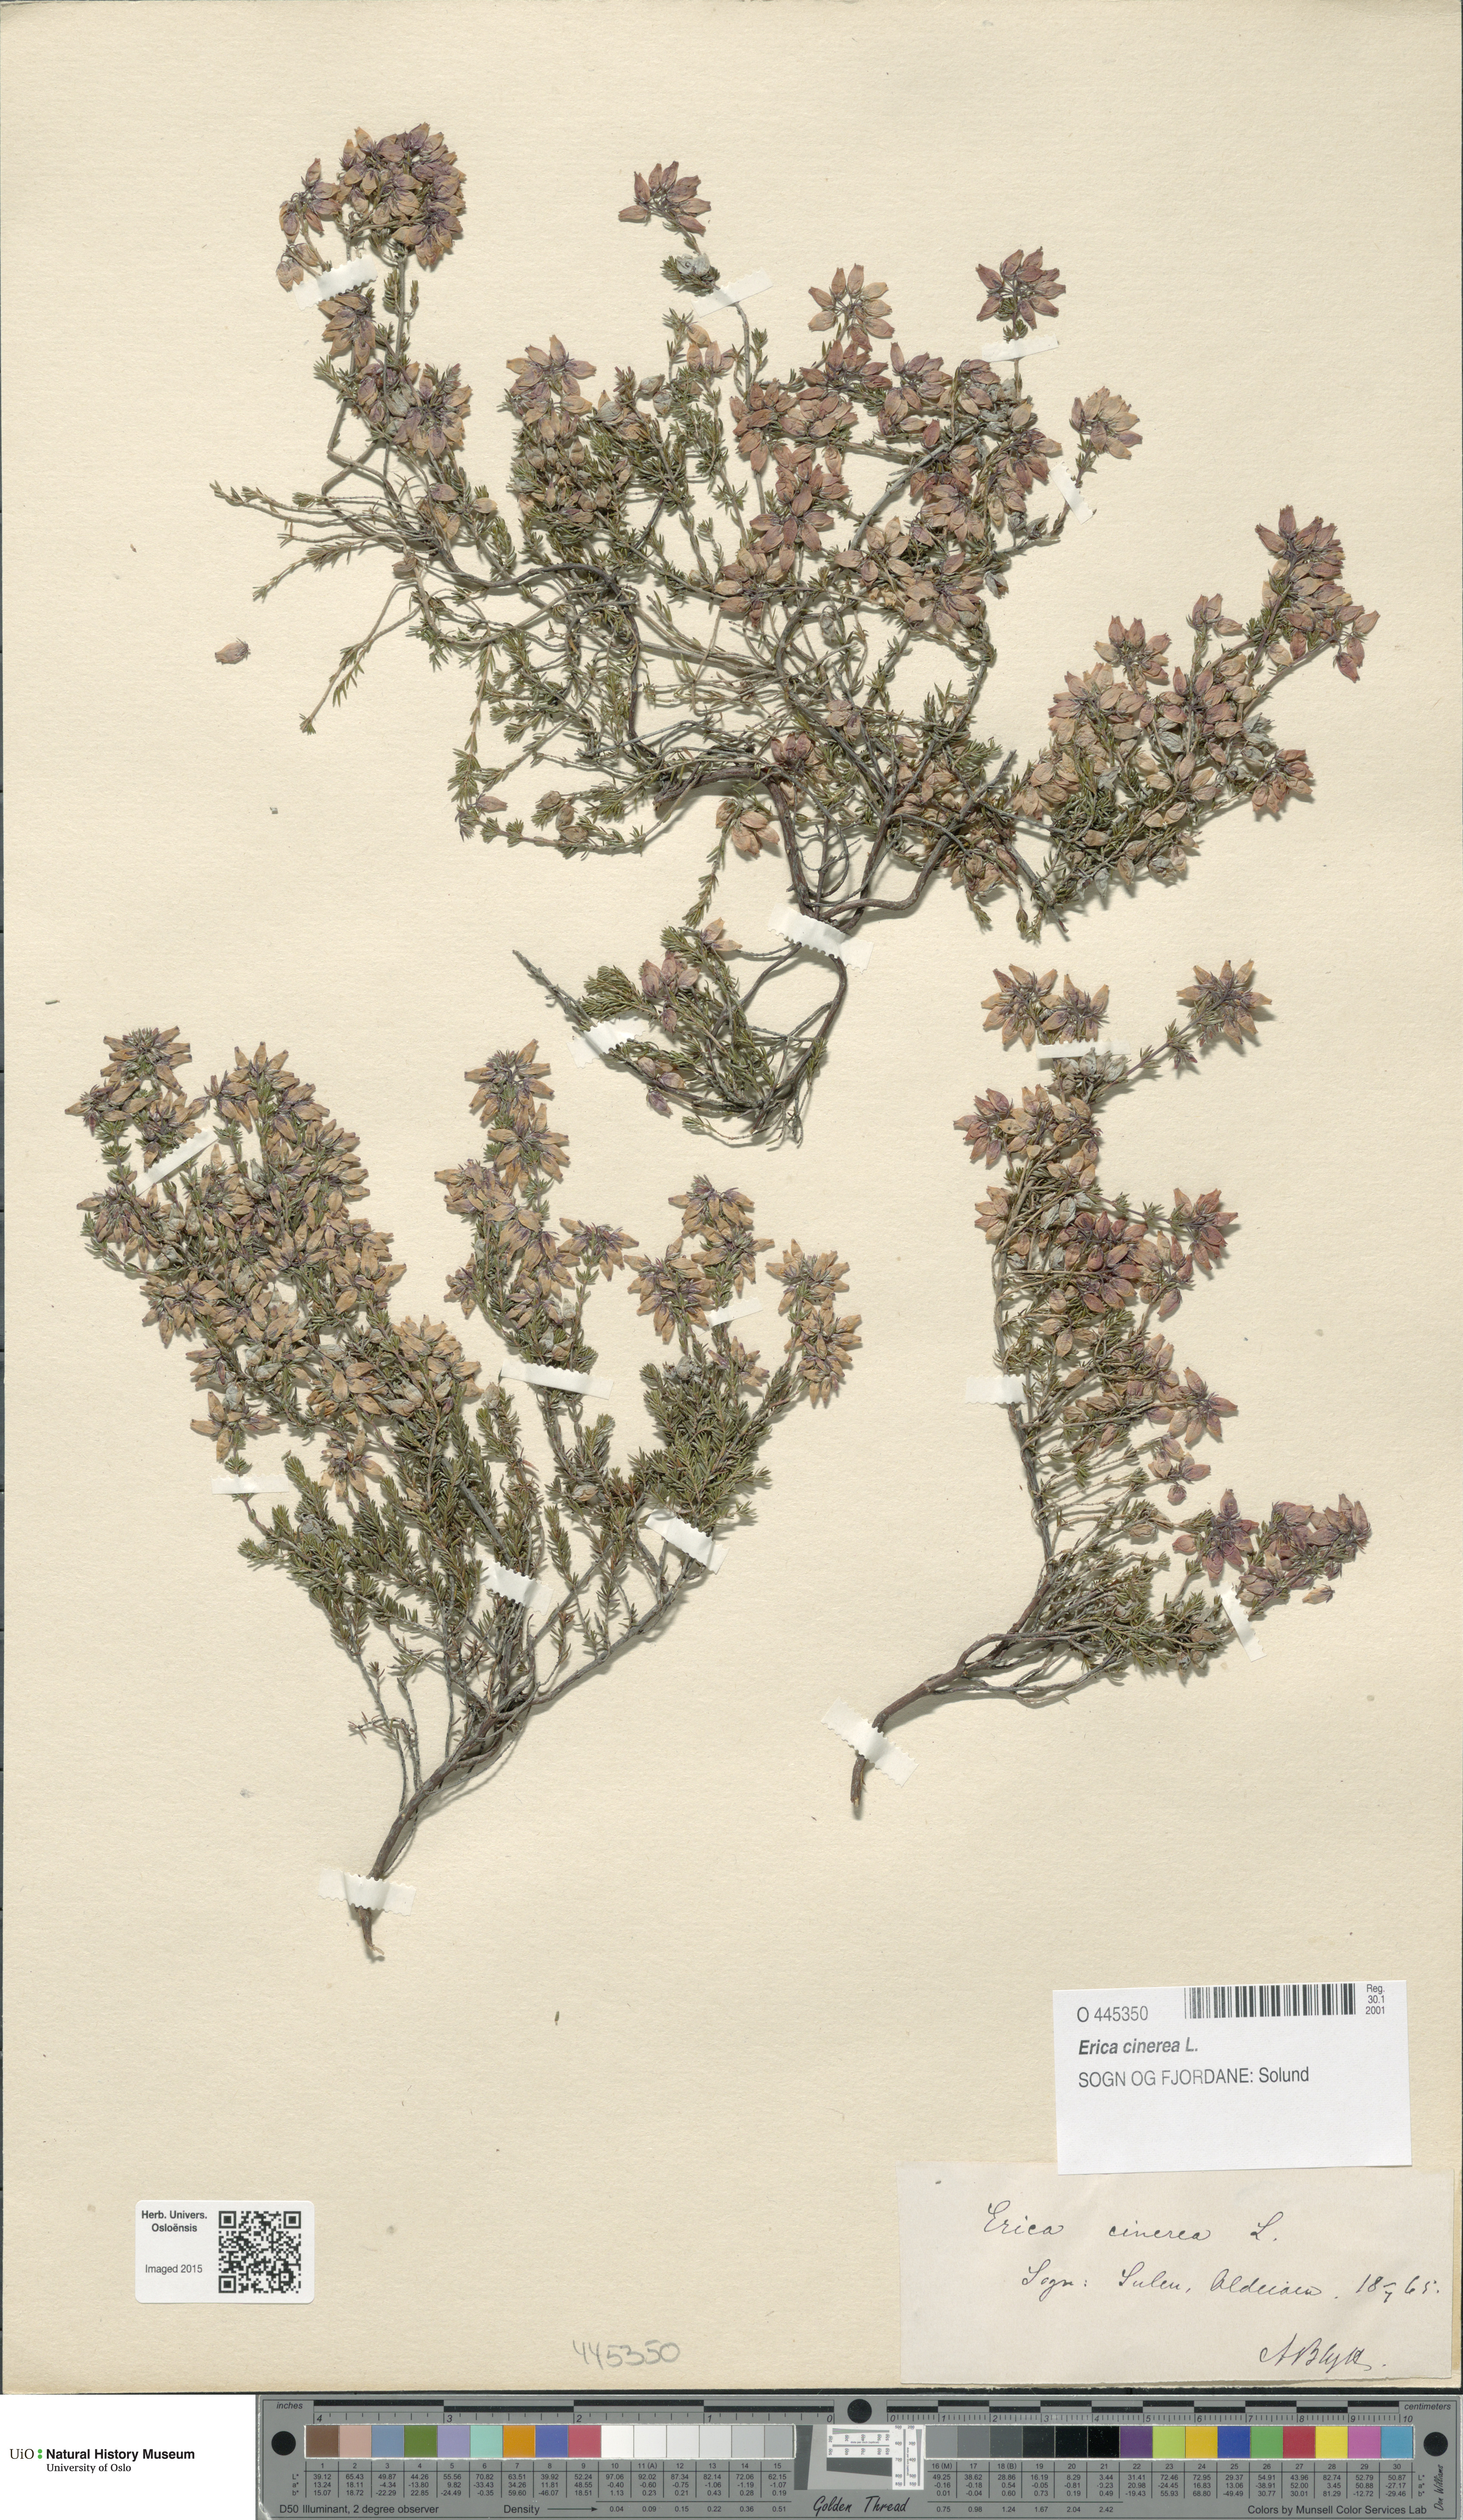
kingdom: Plantae
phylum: Tracheophyta
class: Magnoliopsida
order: Ericales
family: Ericaceae
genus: Erica
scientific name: Erica cinerea
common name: Bell heather
